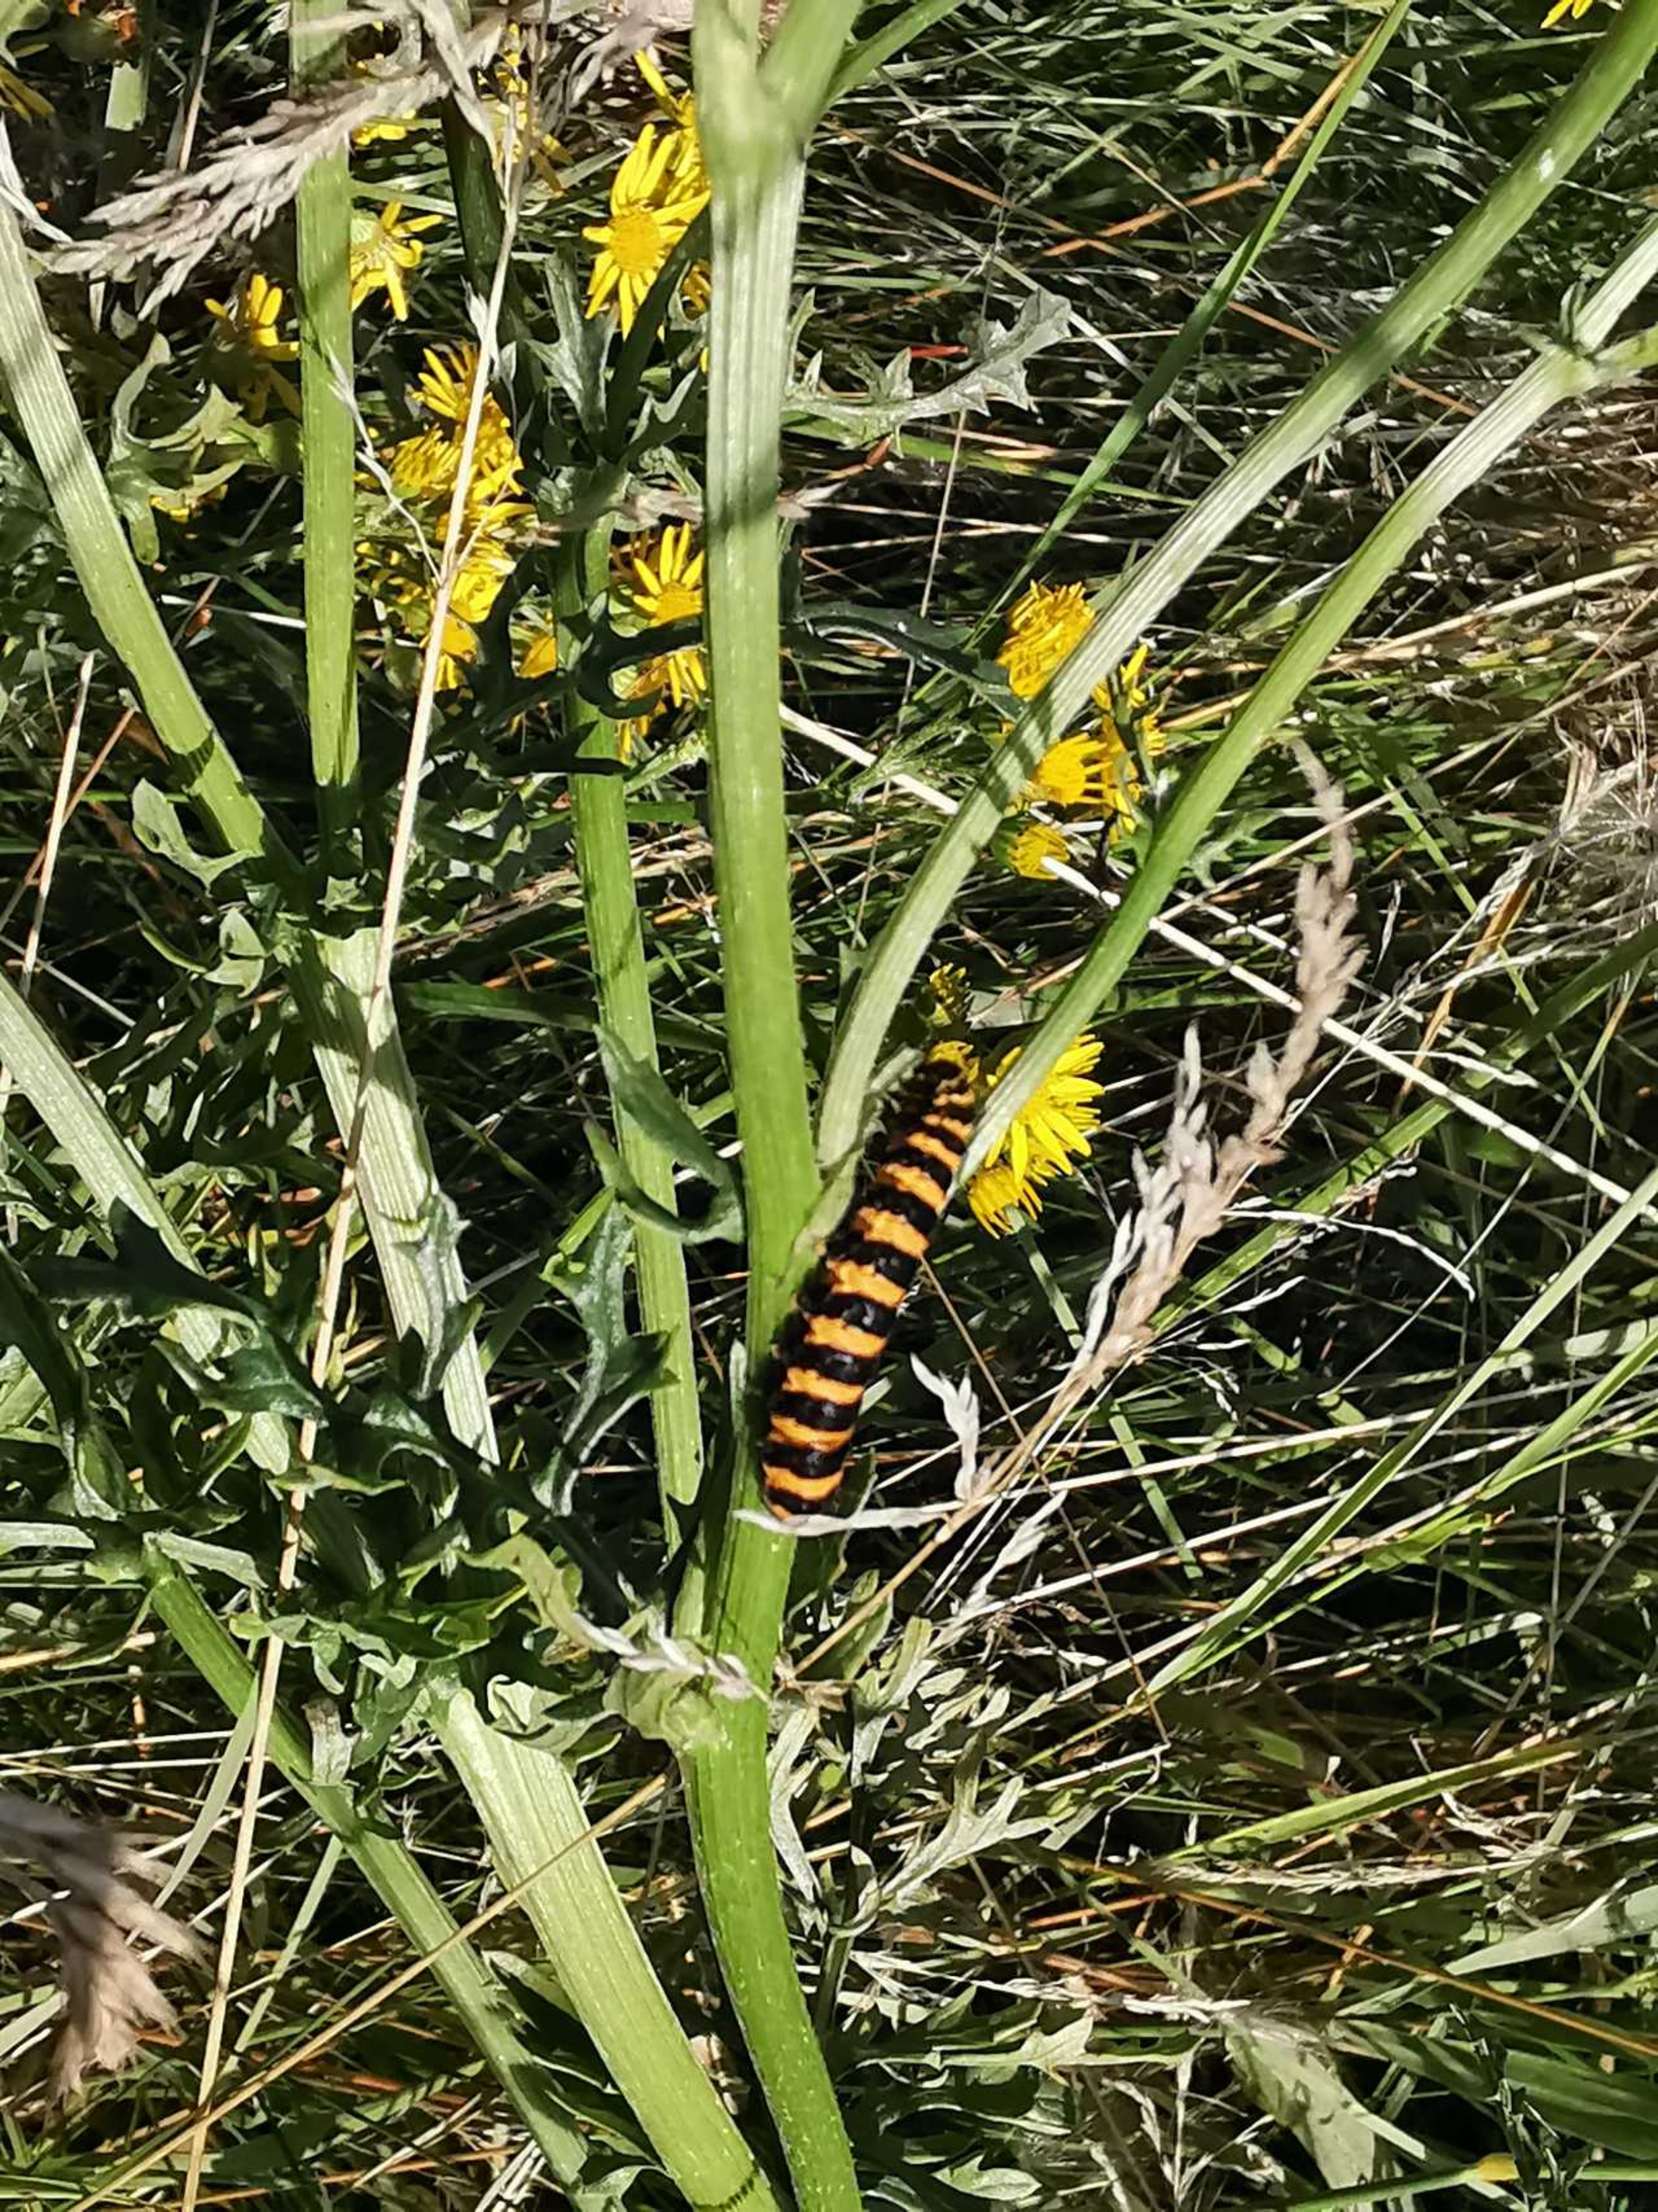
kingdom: Animalia
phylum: Arthropoda
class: Insecta
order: Lepidoptera
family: Erebidae
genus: Tyria
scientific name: Tyria jacobaeae
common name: Blodplet
